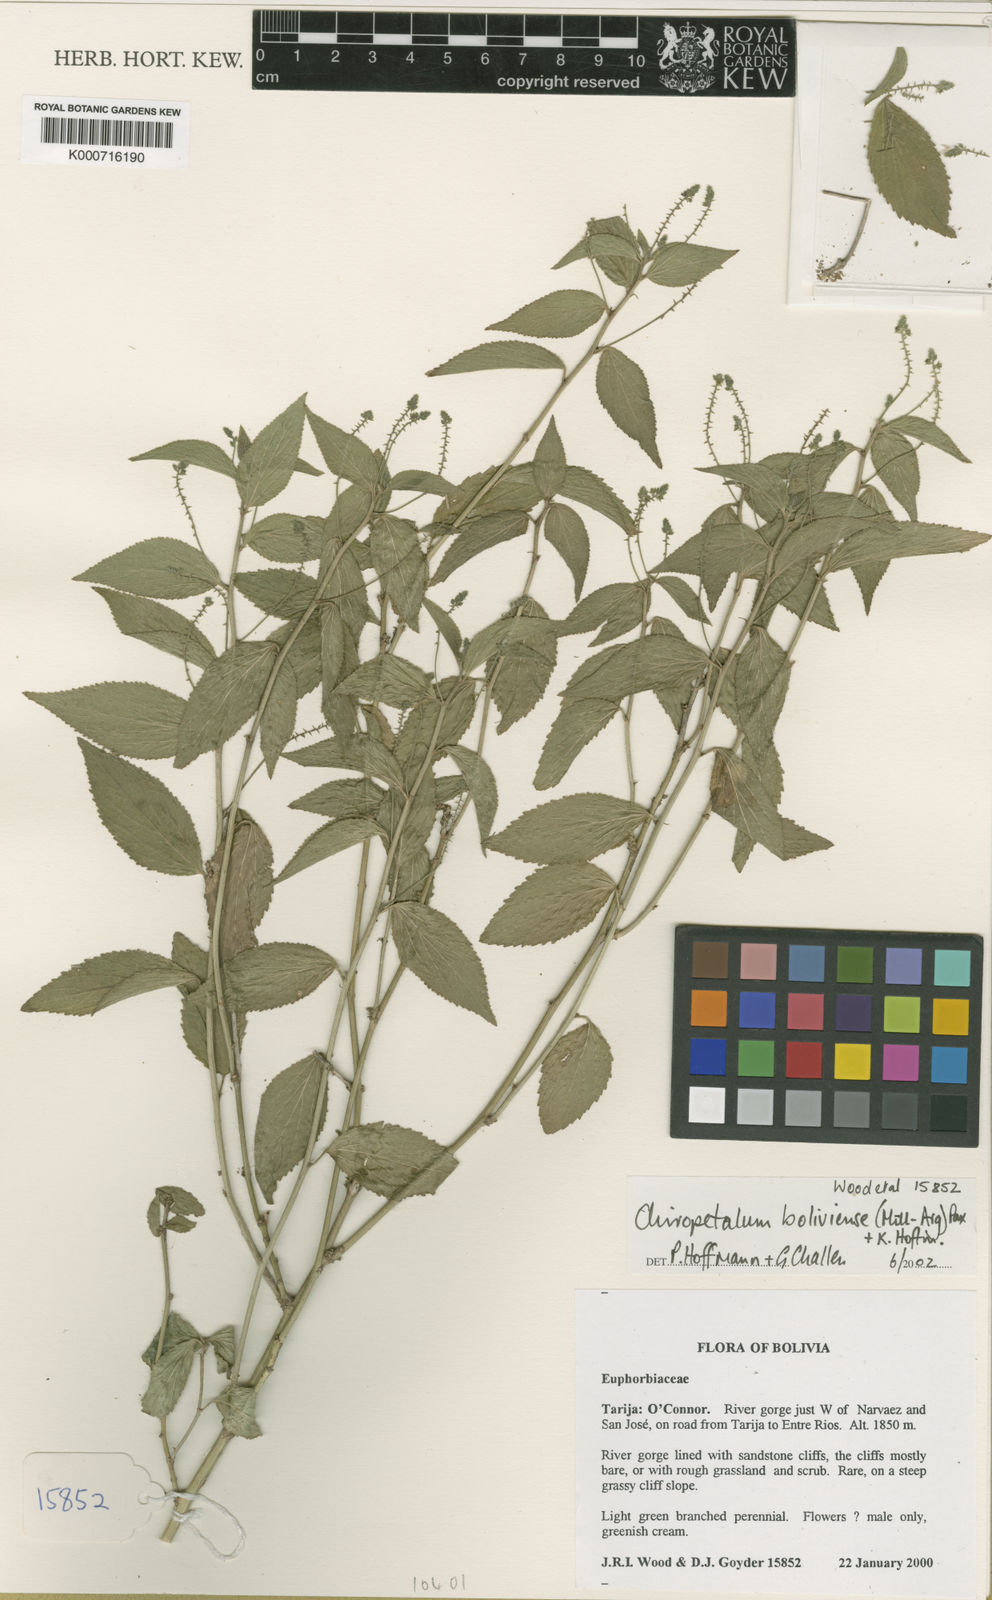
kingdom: Plantae
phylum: Tracheophyta
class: Magnoliopsida
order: Malpighiales
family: Euphorbiaceae
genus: Chiropetalum
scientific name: Chiropetalum
